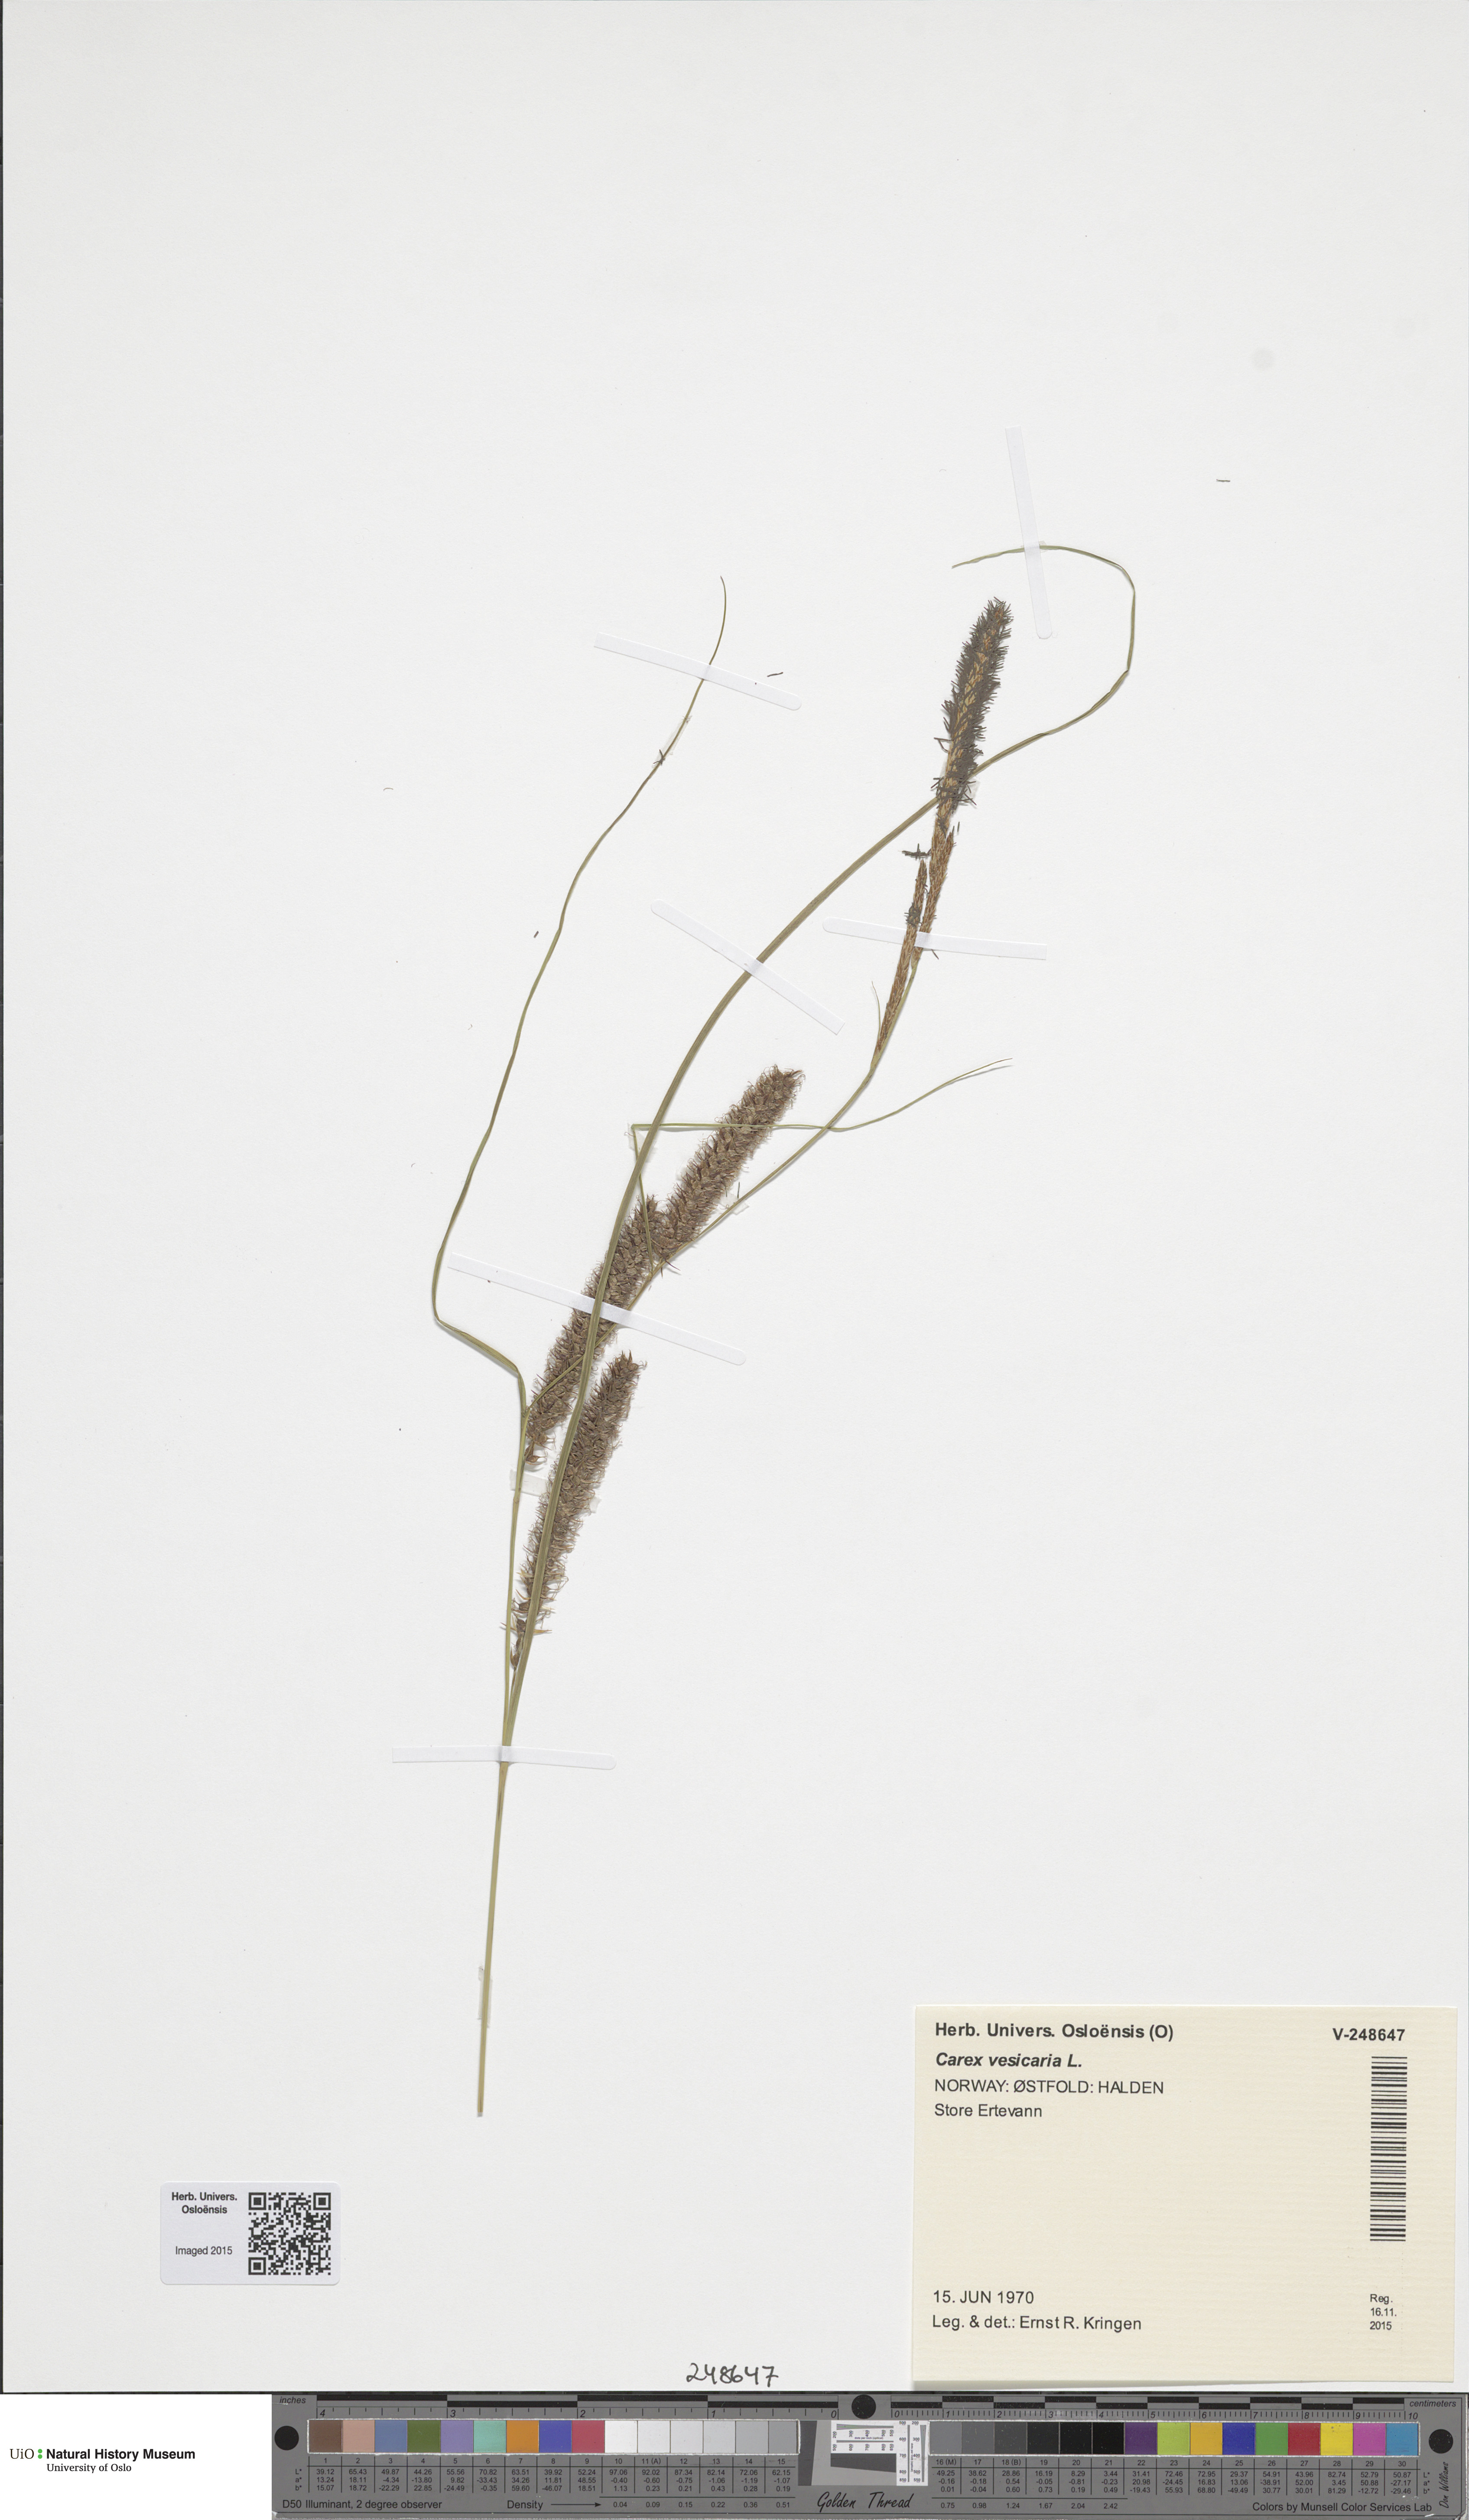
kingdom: Plantae
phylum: Tracheophyta
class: Liliopsida
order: Poales
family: Cyperaceae
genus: Carex
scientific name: Carex rostrata
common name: Bottle sedge
